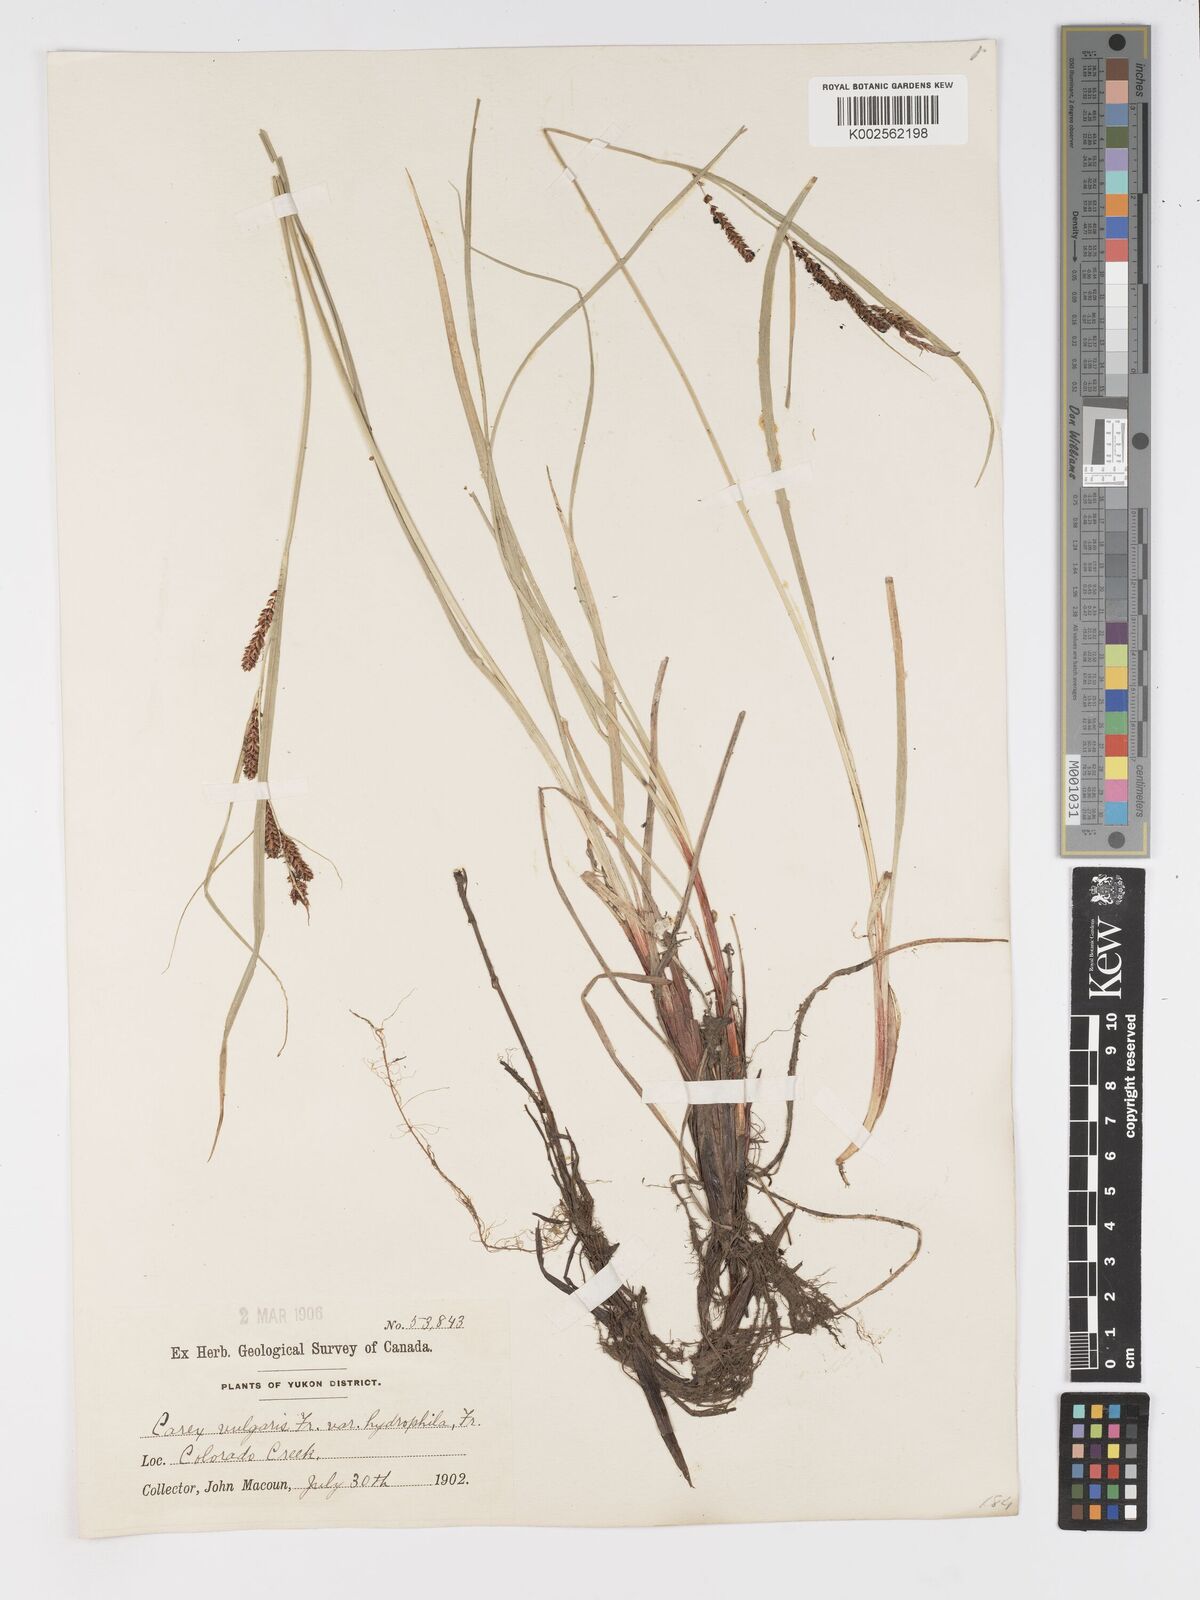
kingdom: Plantae
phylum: Tracheophyta
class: Liliopsida
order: Poales
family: Cyperaceae
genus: Carex
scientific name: Carex nigra
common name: Common sedge
